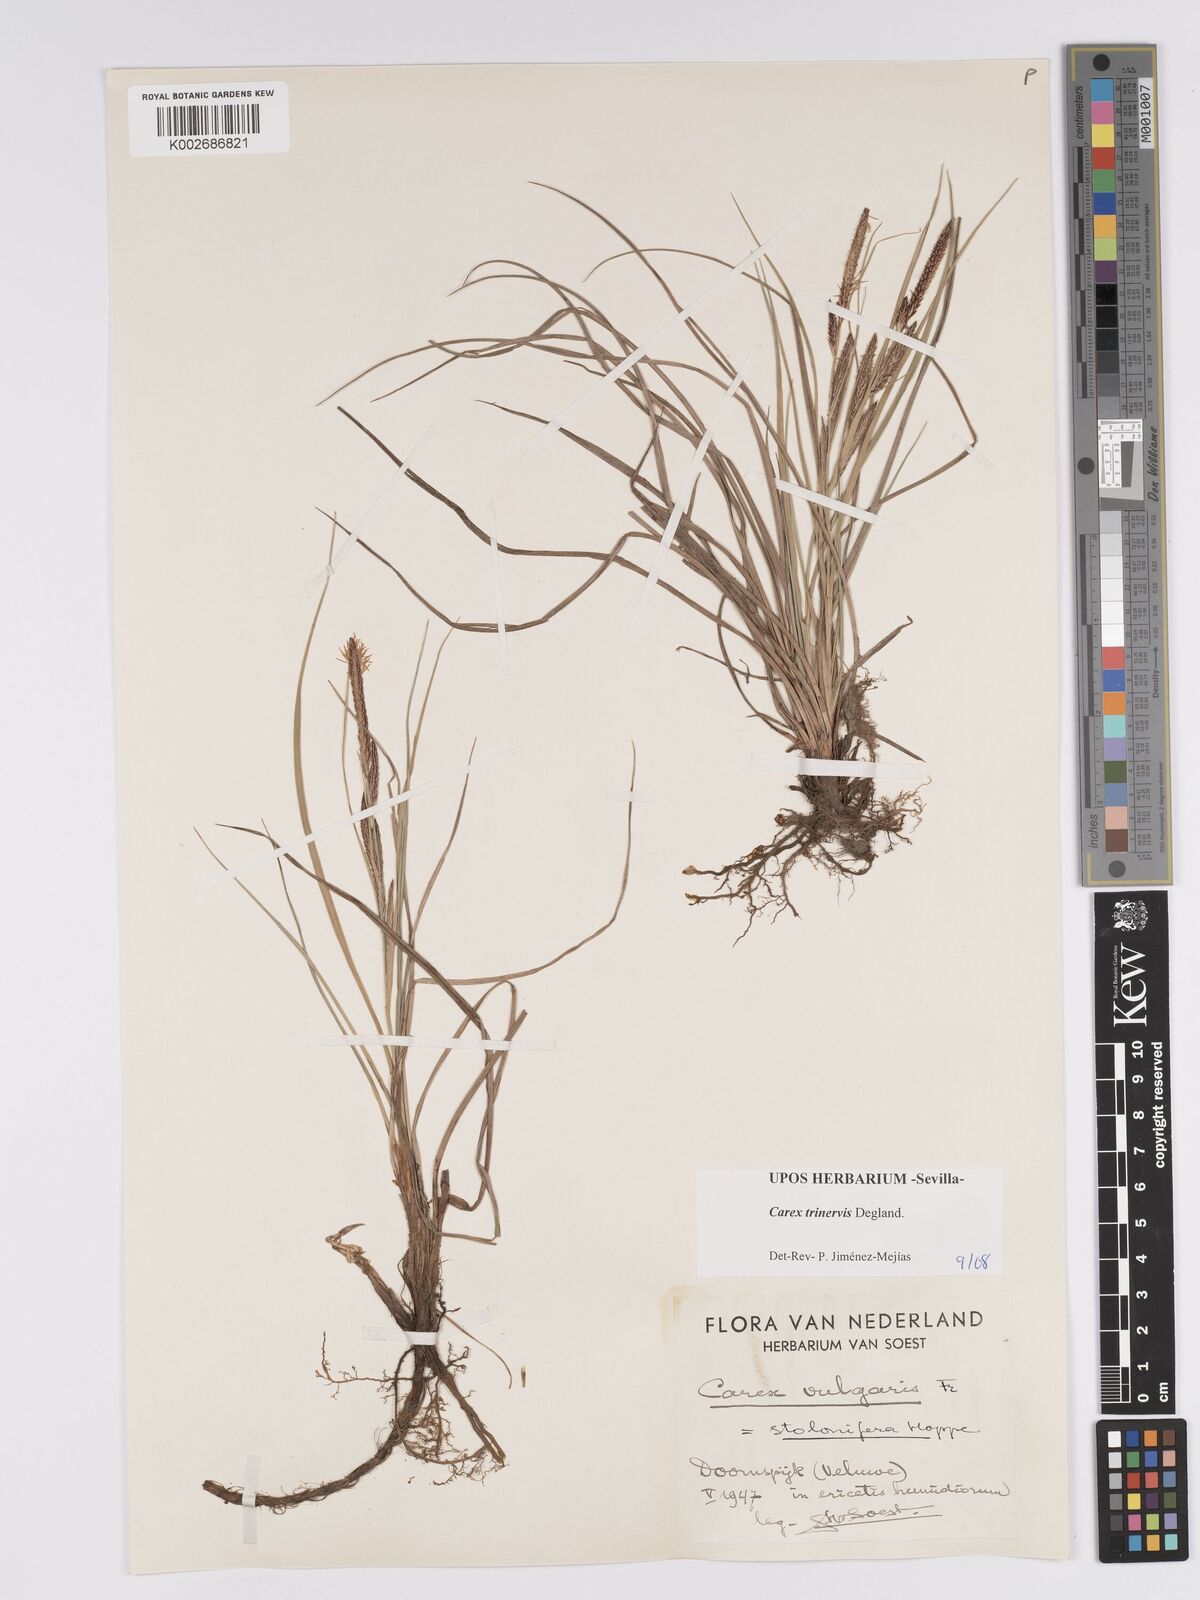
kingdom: Plantae
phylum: Tracheophyta
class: Liliopsida
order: Poales
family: Cyperaceae
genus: Carex
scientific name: Carex trinervis
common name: Three-nerved sedge
